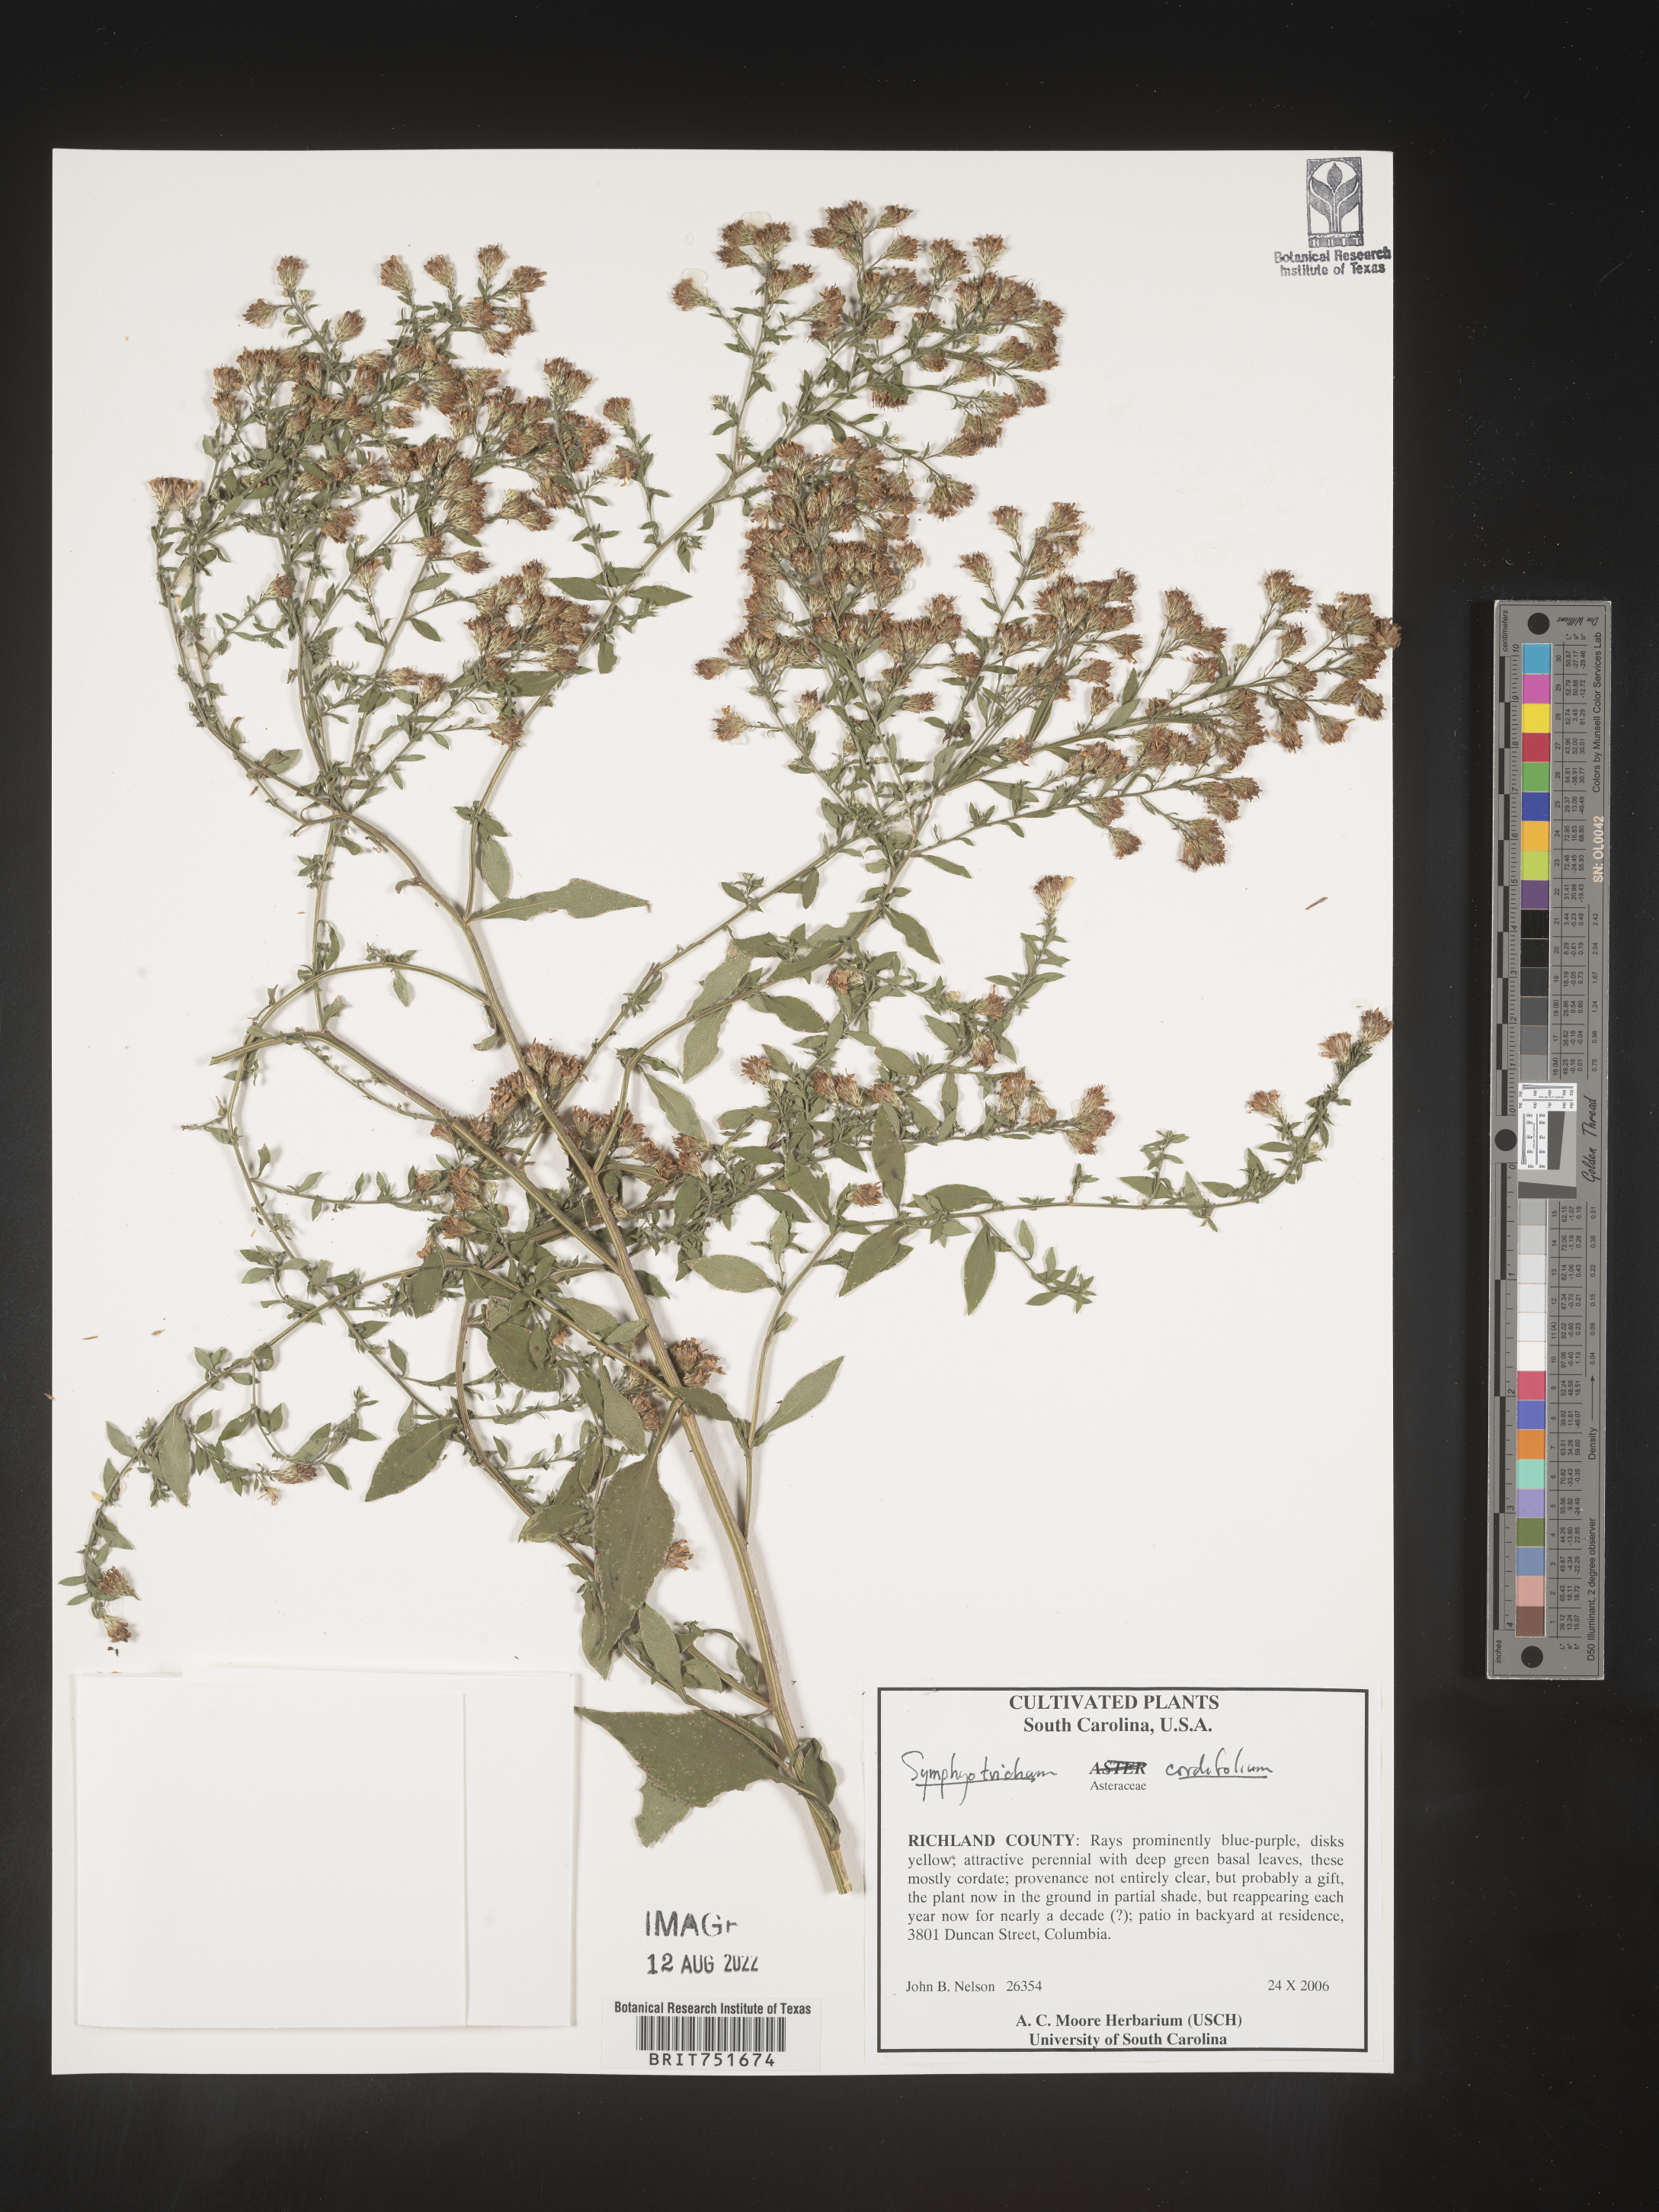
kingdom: Plantae
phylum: Tracheophyta
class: Magnoliopsida
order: Asterales
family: Asteraceae
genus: Symphyotrichum
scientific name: Symphyotrichum cordifolium
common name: Beeweed
